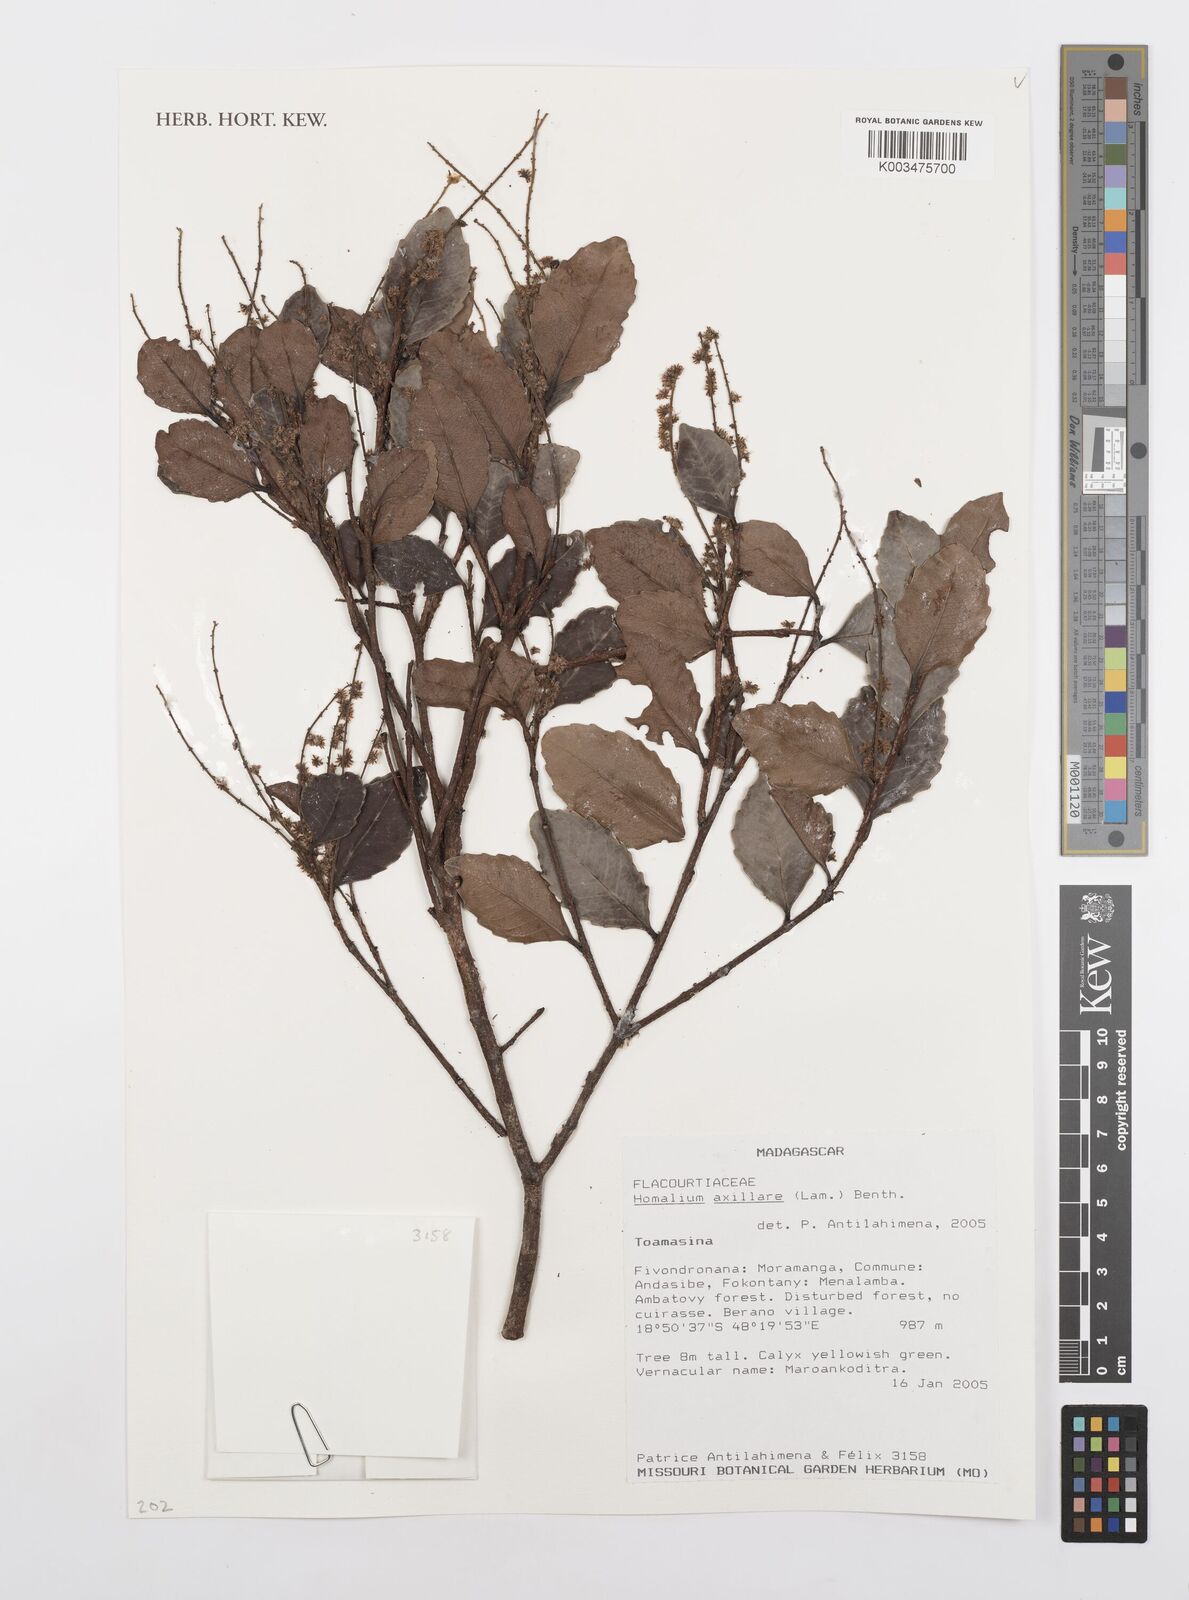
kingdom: Plantae
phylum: Tracheophyta
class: Magnoliopsida
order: Malpighiales
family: Salicaceae
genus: Homalium
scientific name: Homalium axillare
